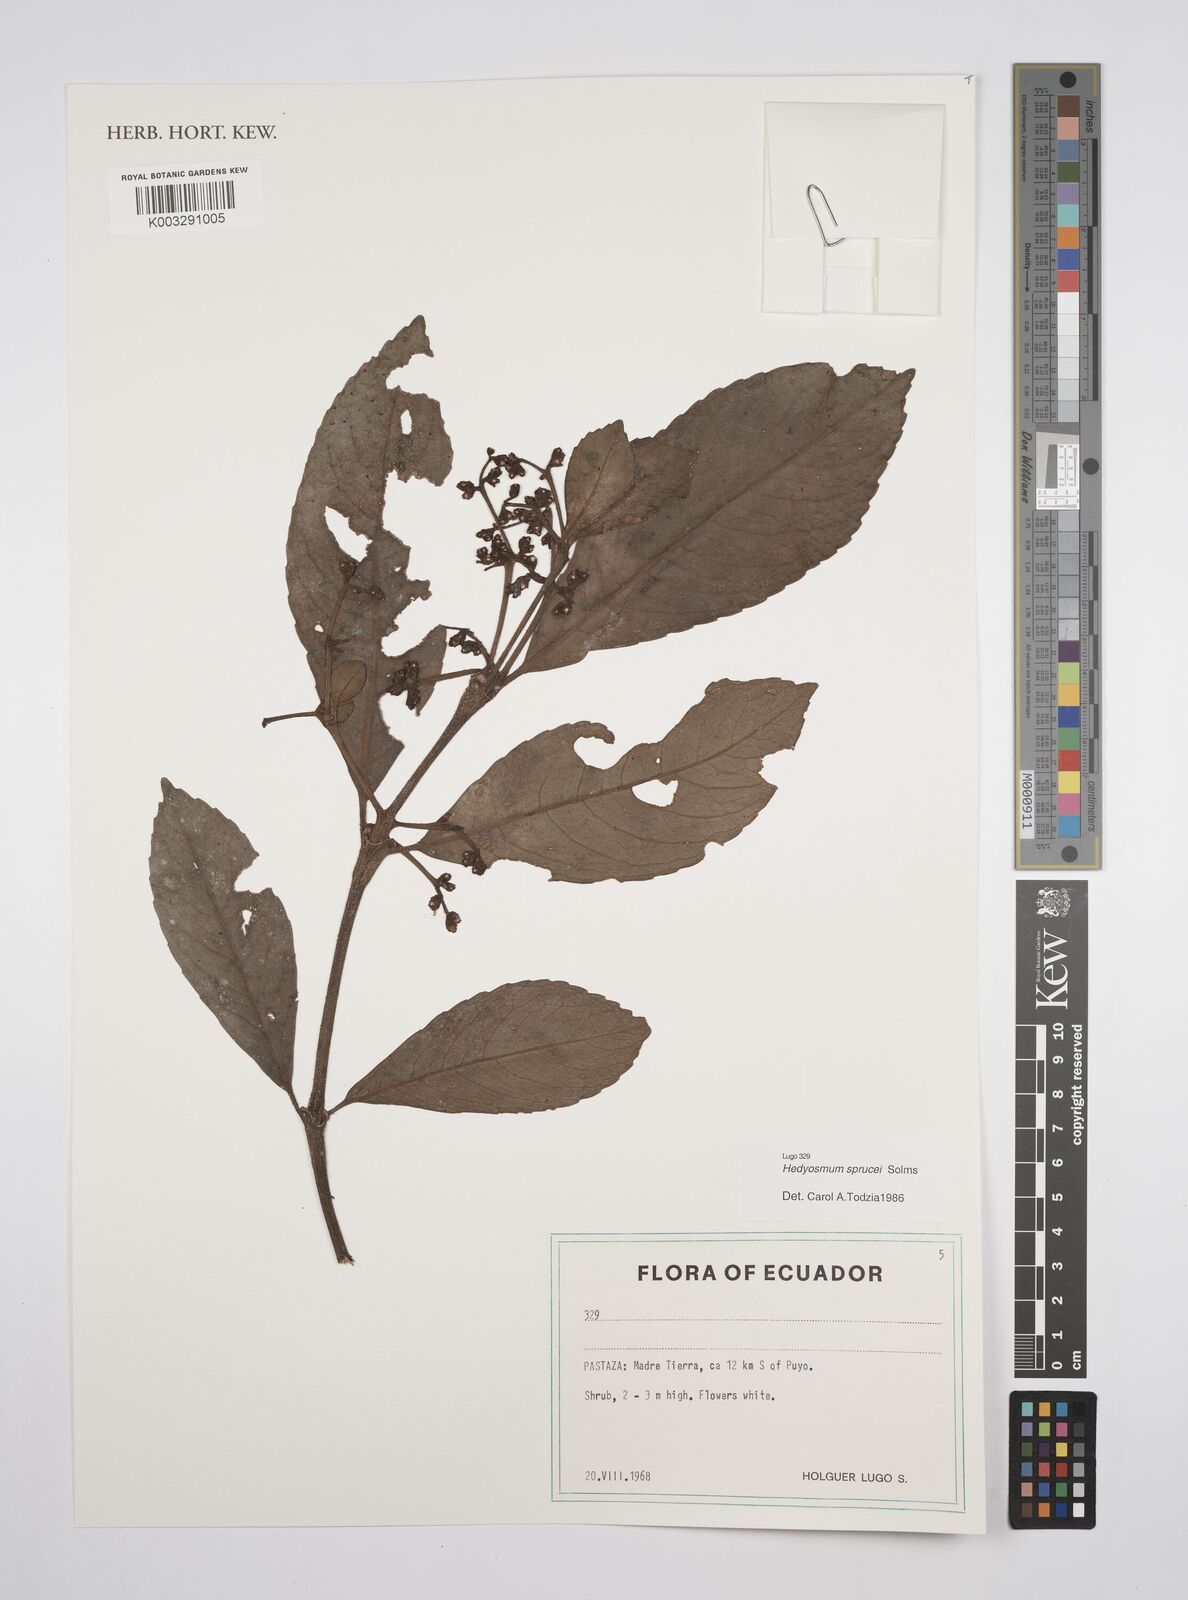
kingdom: Plantae
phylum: Tracheophyta
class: Magnoliopsida
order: Chloranthales
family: Chloranthaceae
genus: Hedyosmum
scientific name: Hedyosmum sprucei
